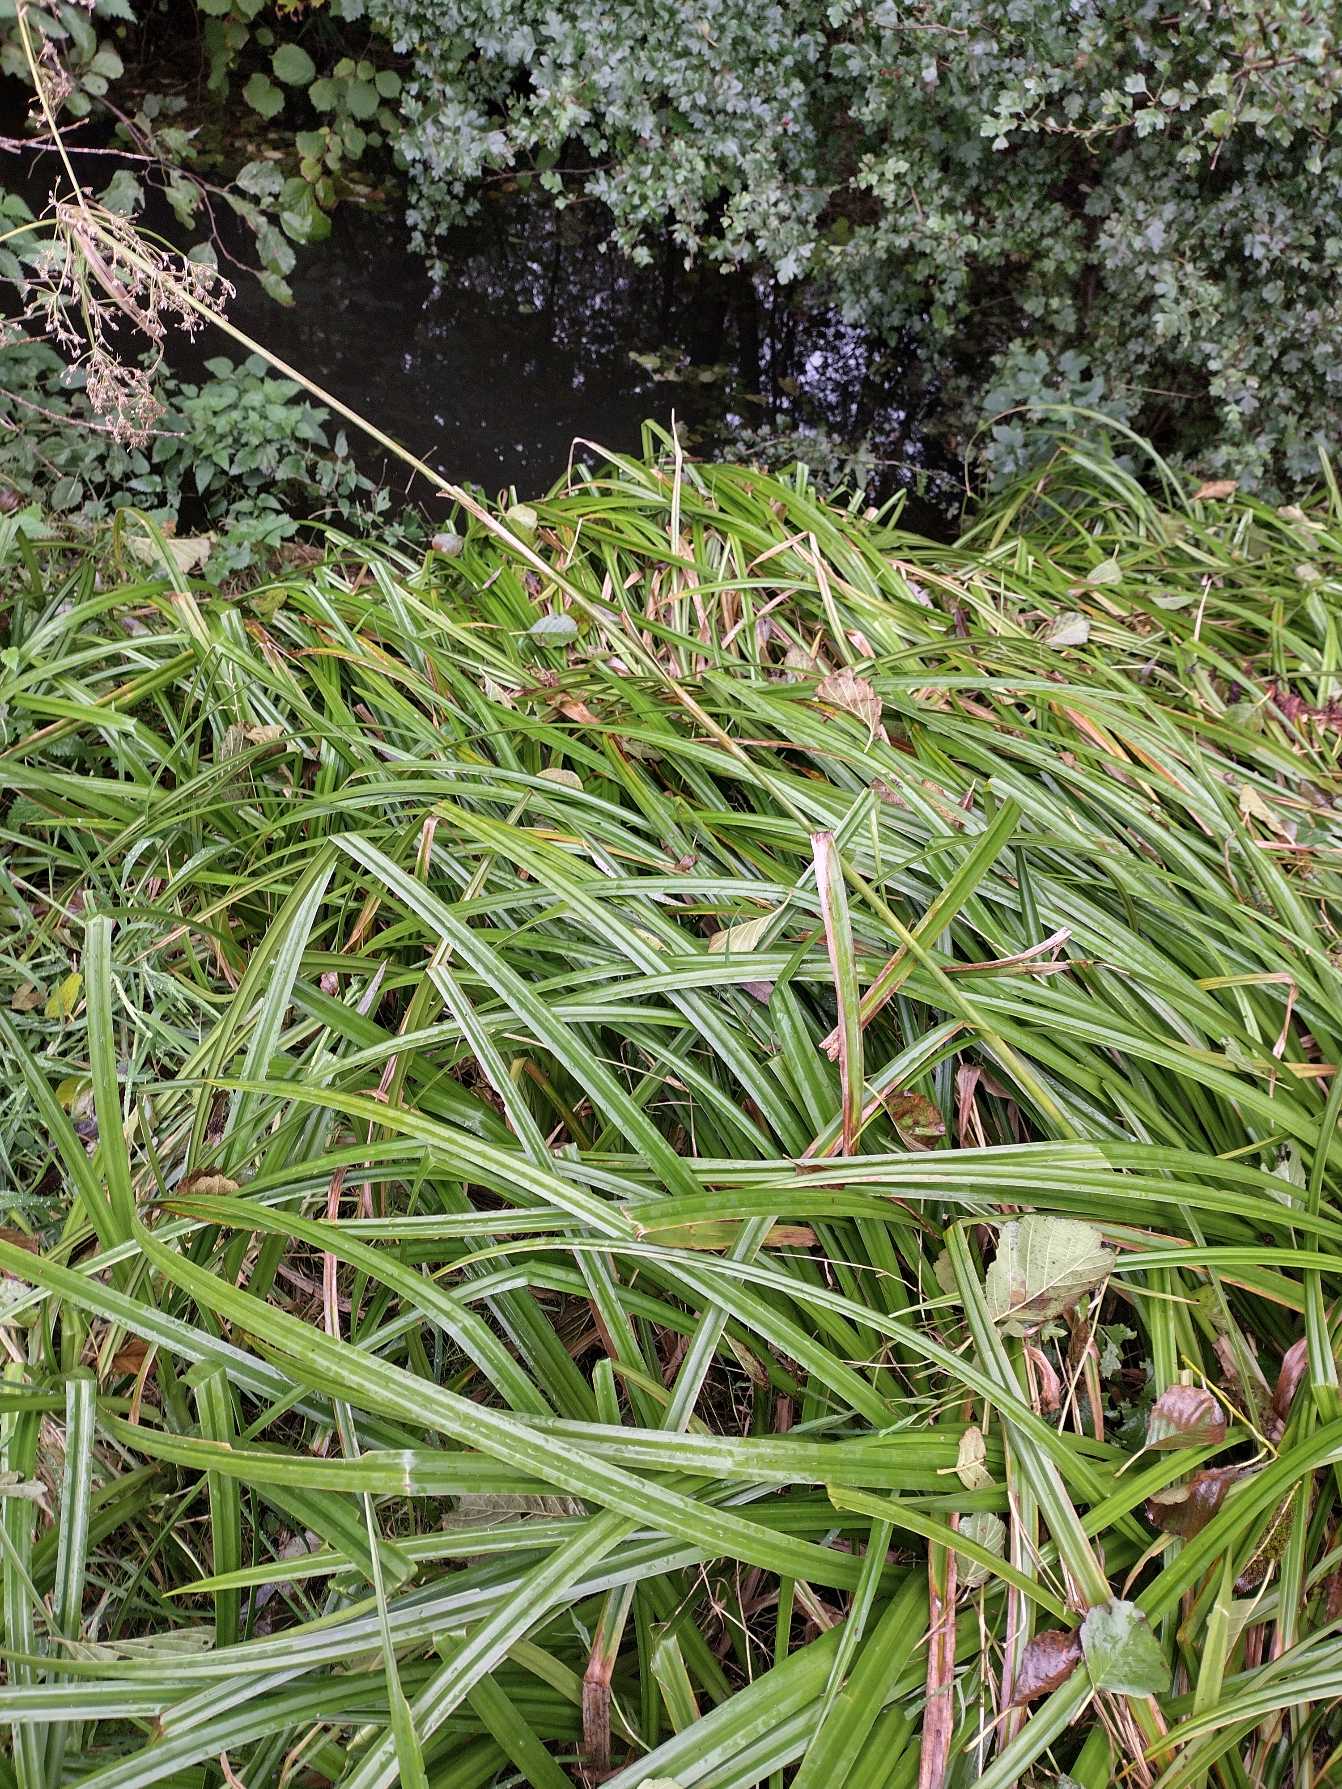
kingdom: Plantae
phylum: Tracheophyta
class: Liliopsida
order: Poales
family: Cyperaceae
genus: Scirpus
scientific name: Scirpus sylvaticus
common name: Skov-kogleaks
